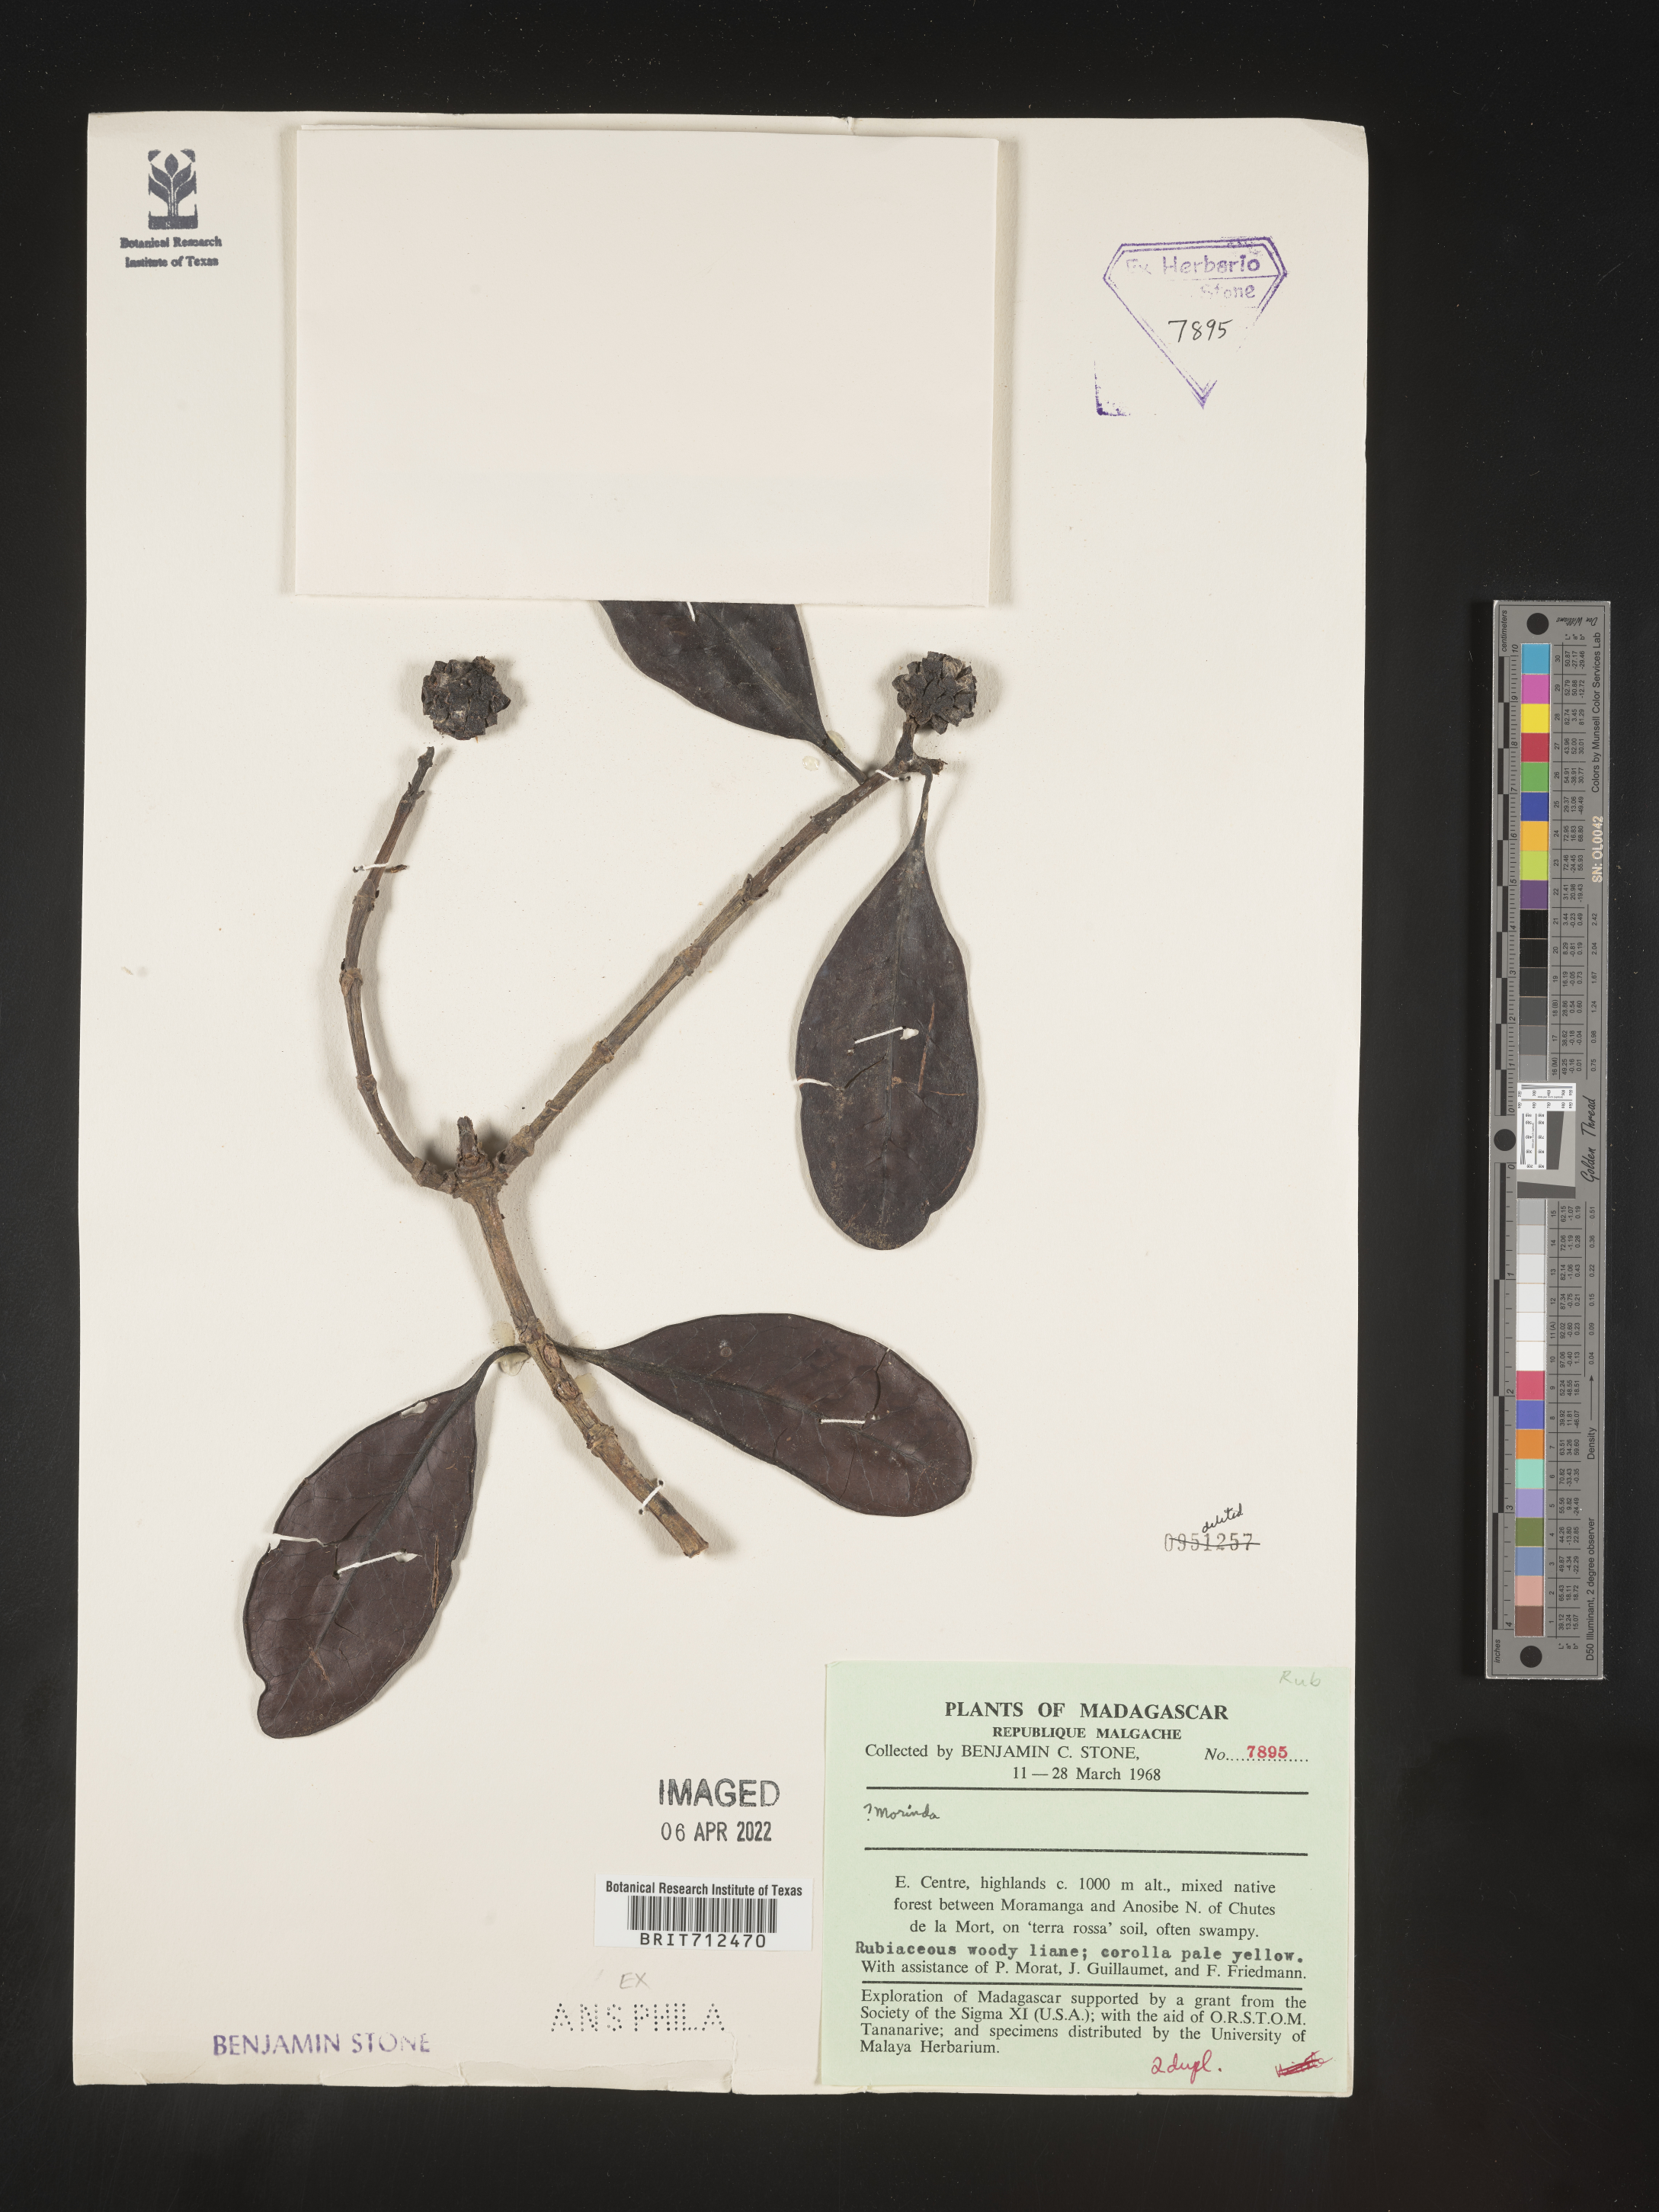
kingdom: Plantae
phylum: Tracheophyta
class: Magnoliopsida
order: Gentianales
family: Rubiaceae
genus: Morinda
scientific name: Morinda
